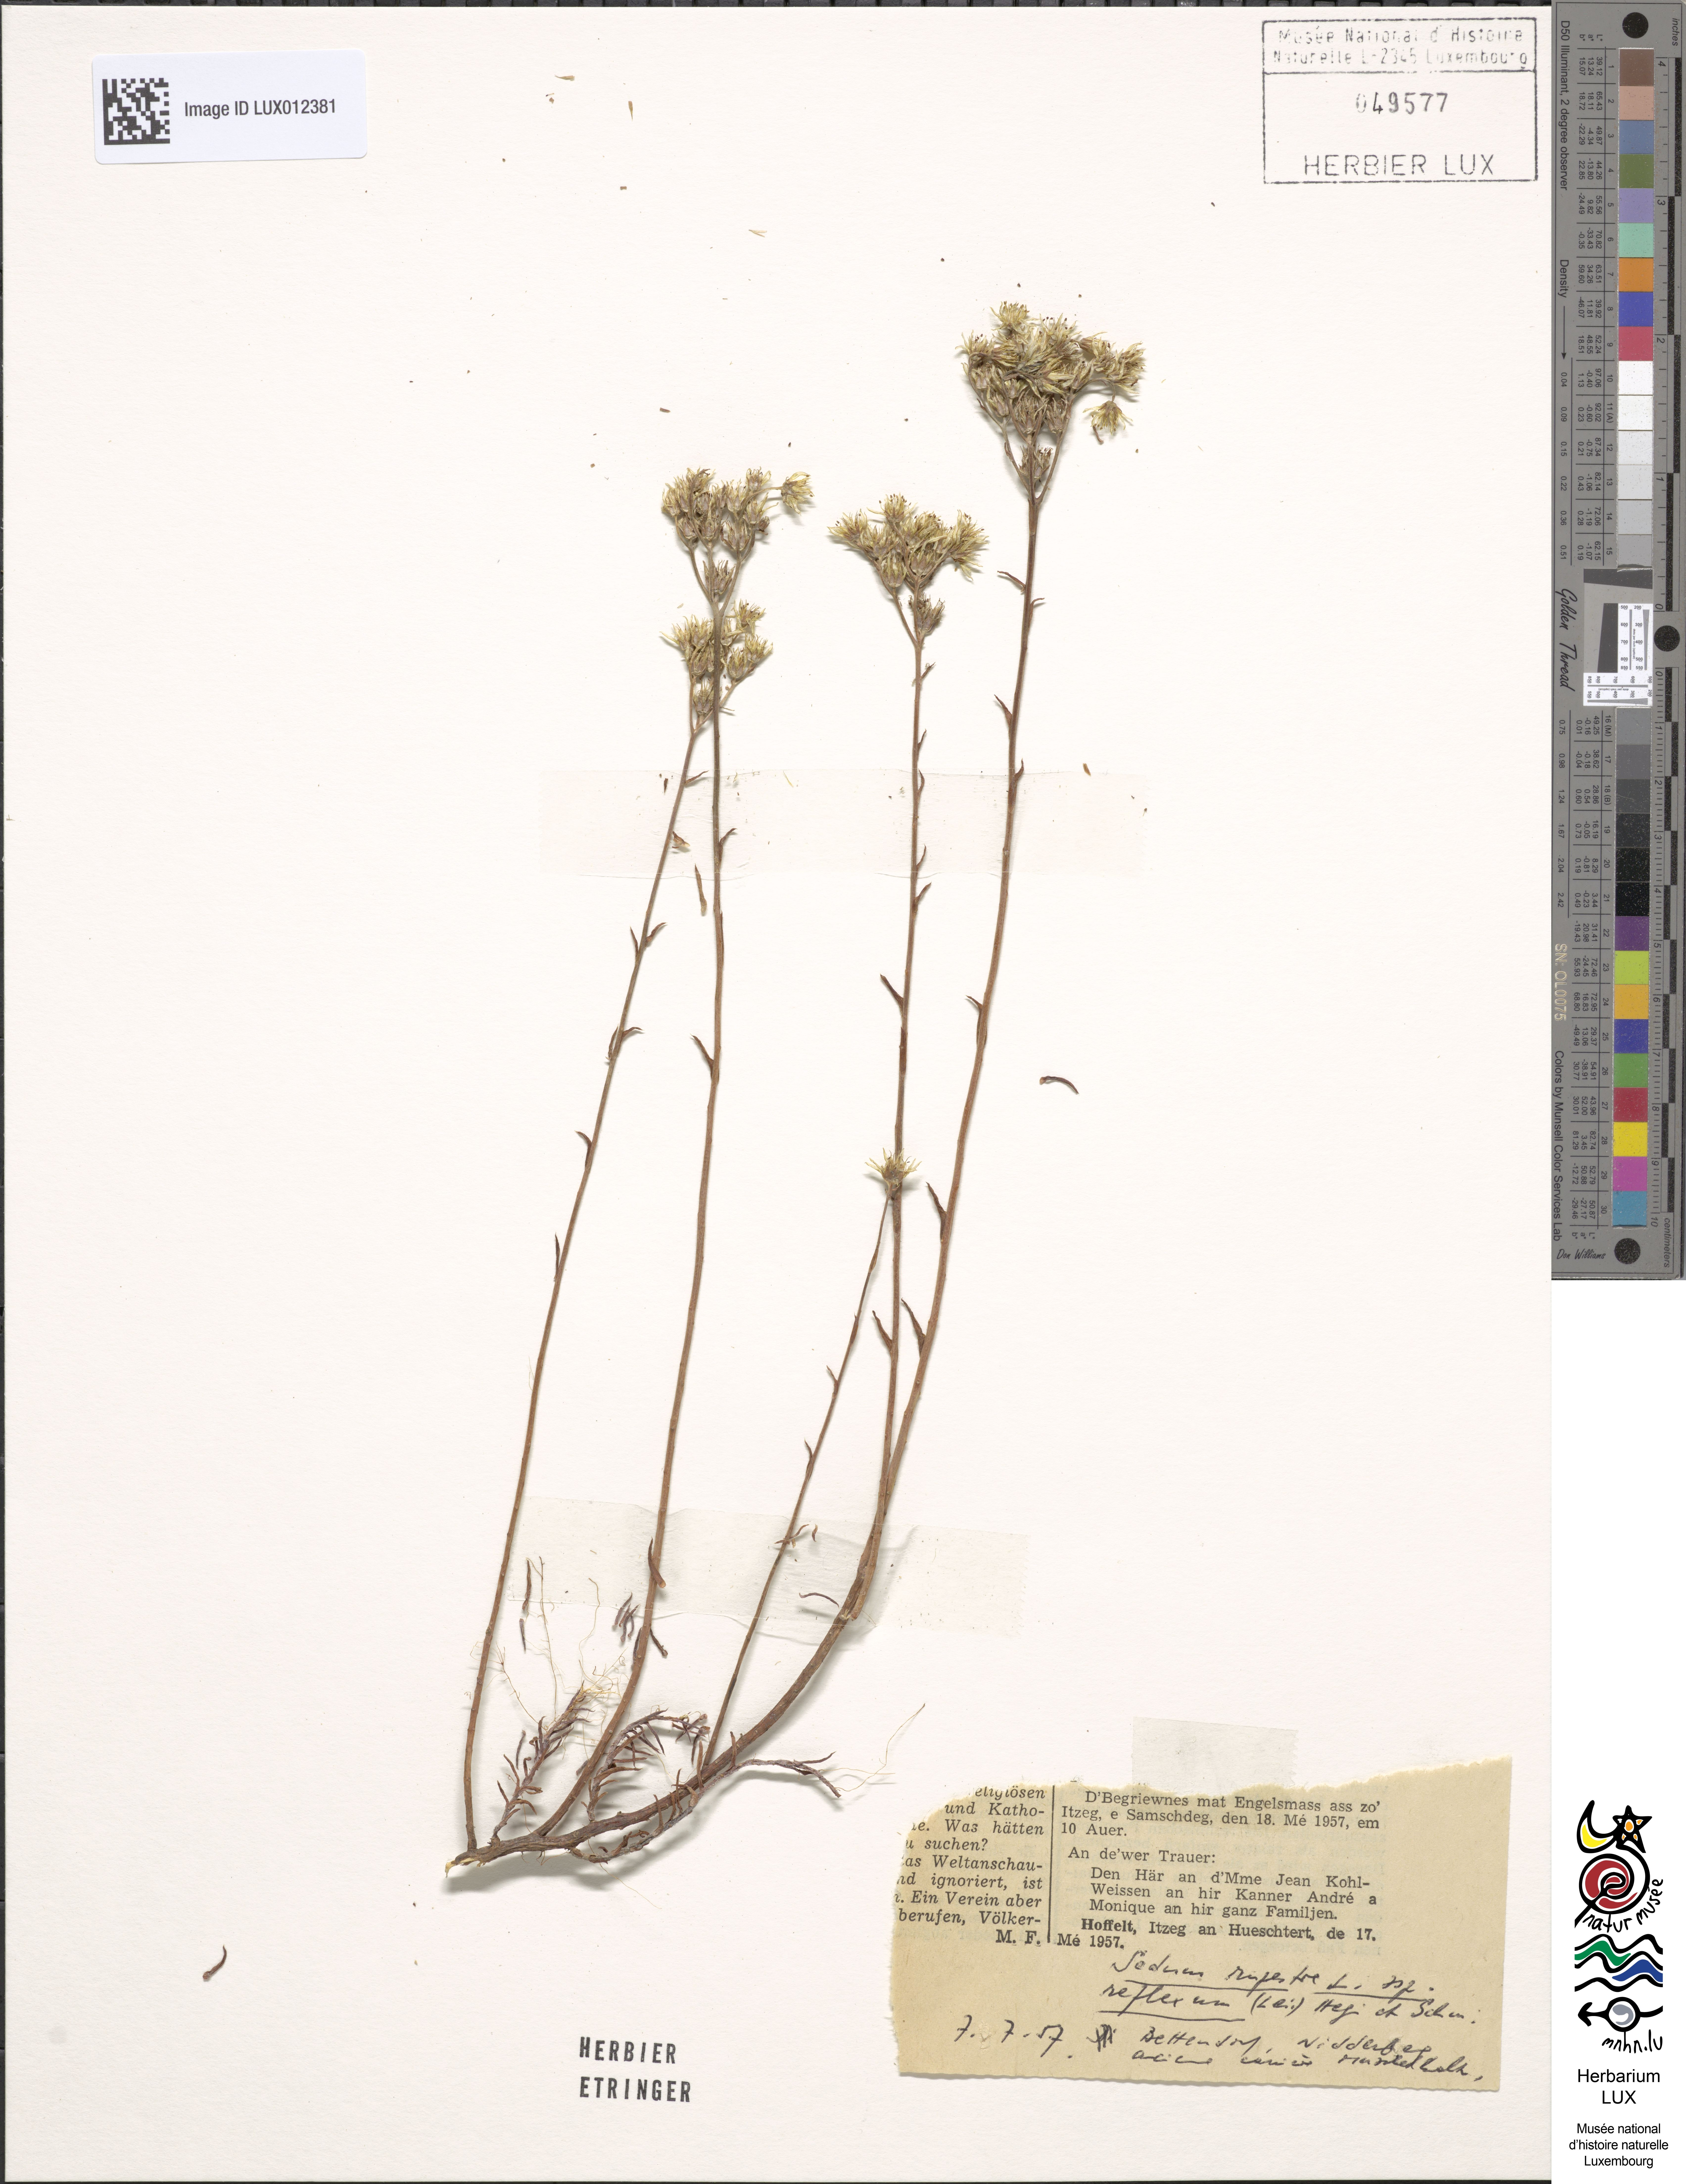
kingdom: Plantae
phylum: Tracheophyta
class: Magnoliopsida
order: Saxifragales
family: Crassulaceae
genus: Petrosedum
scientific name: Petrosedum rupestre
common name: Jenny's stonecrop
